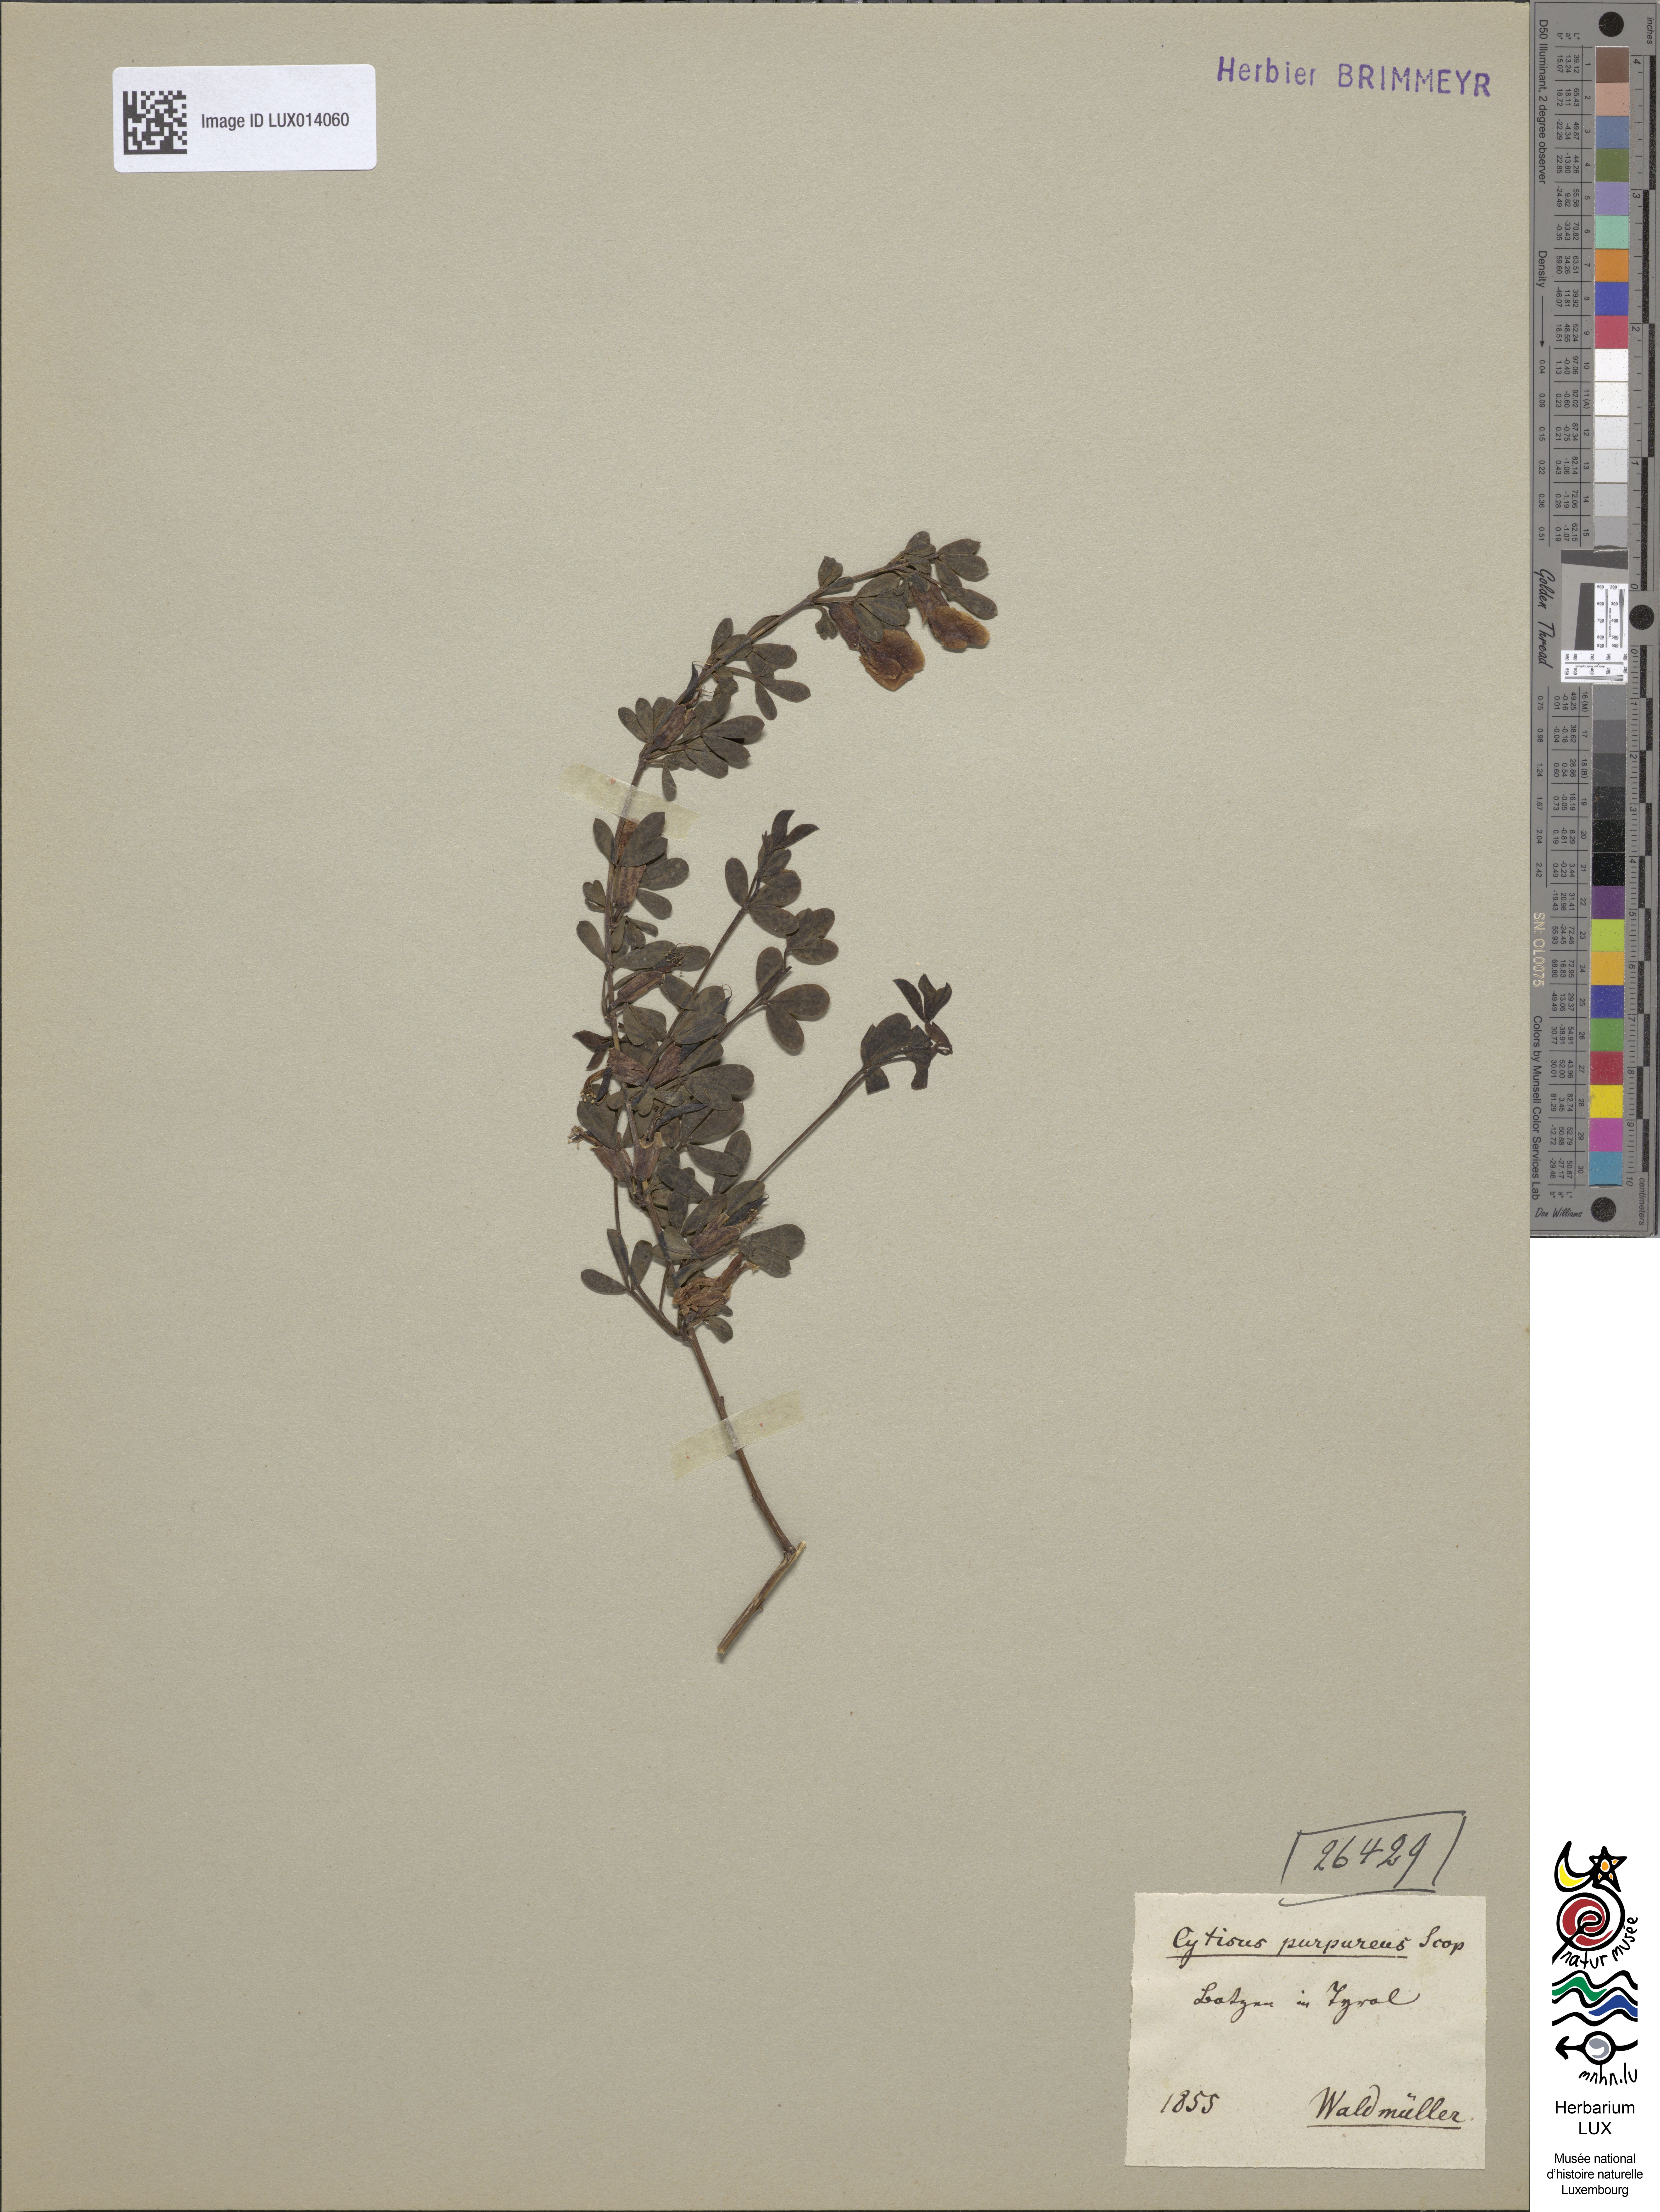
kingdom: Plantae
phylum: Tracheophyta
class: Magnoliopsida
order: Fabales
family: Fabaceae
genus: Chamaecytisus
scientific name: Chamaecytisus purpureus
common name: Purple broom
